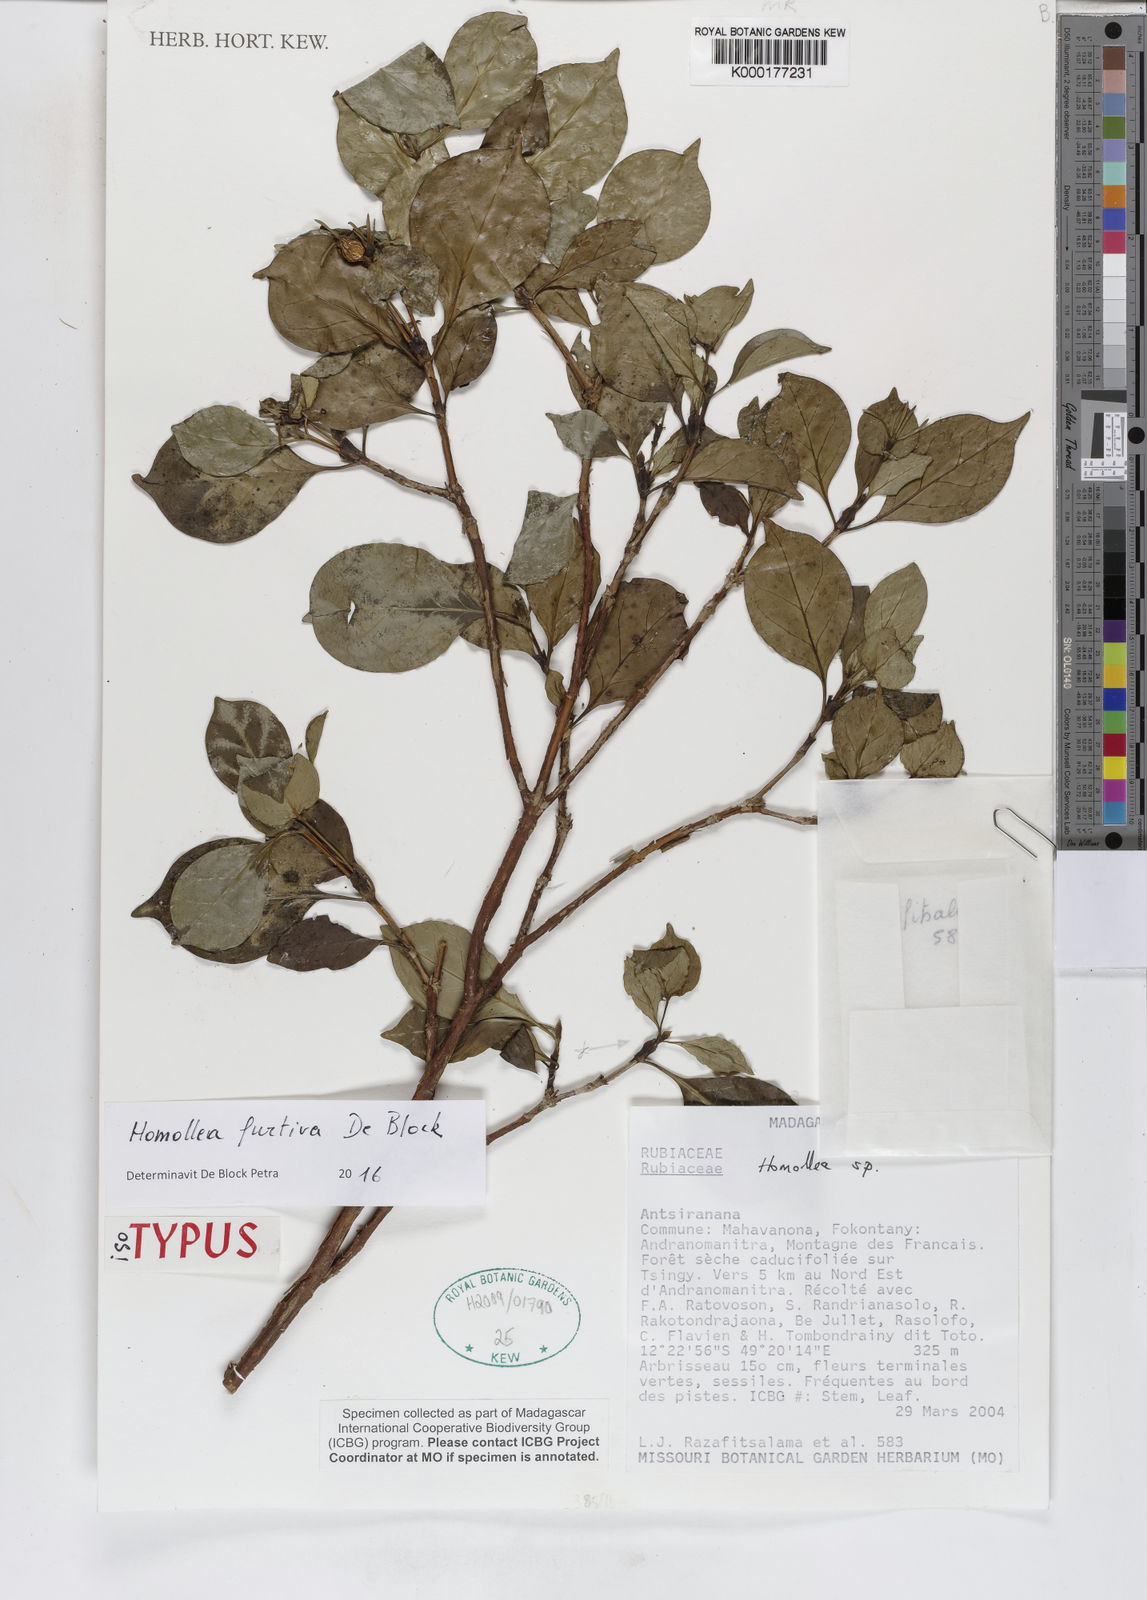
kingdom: Plantae
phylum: Tracheophyta
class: Magnoliopsida
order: Gentianales
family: Rubiaceae
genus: Homollea
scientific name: Homollea furtiva
